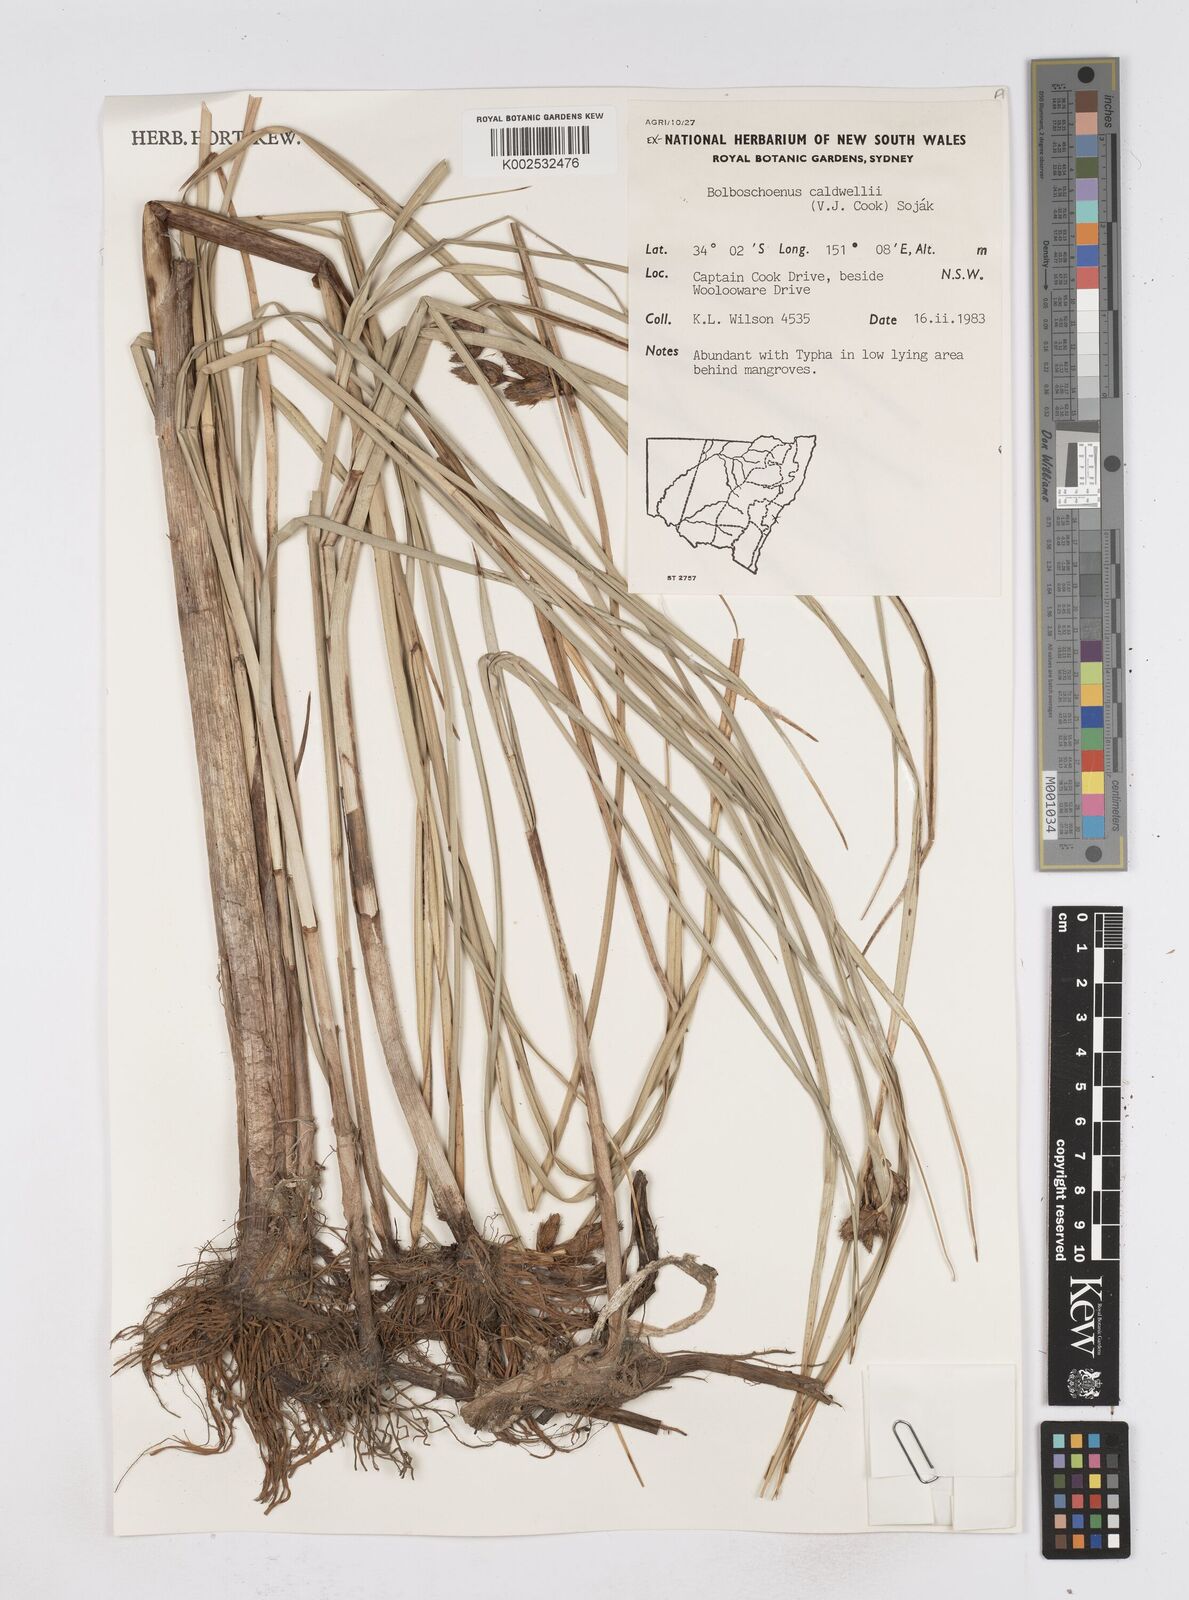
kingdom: Plantae
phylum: Tracheophyta
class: Liliopsida
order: Poales
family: Cyperaceae
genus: Bolboschoenus
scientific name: Bolboschoenus caldwellii
